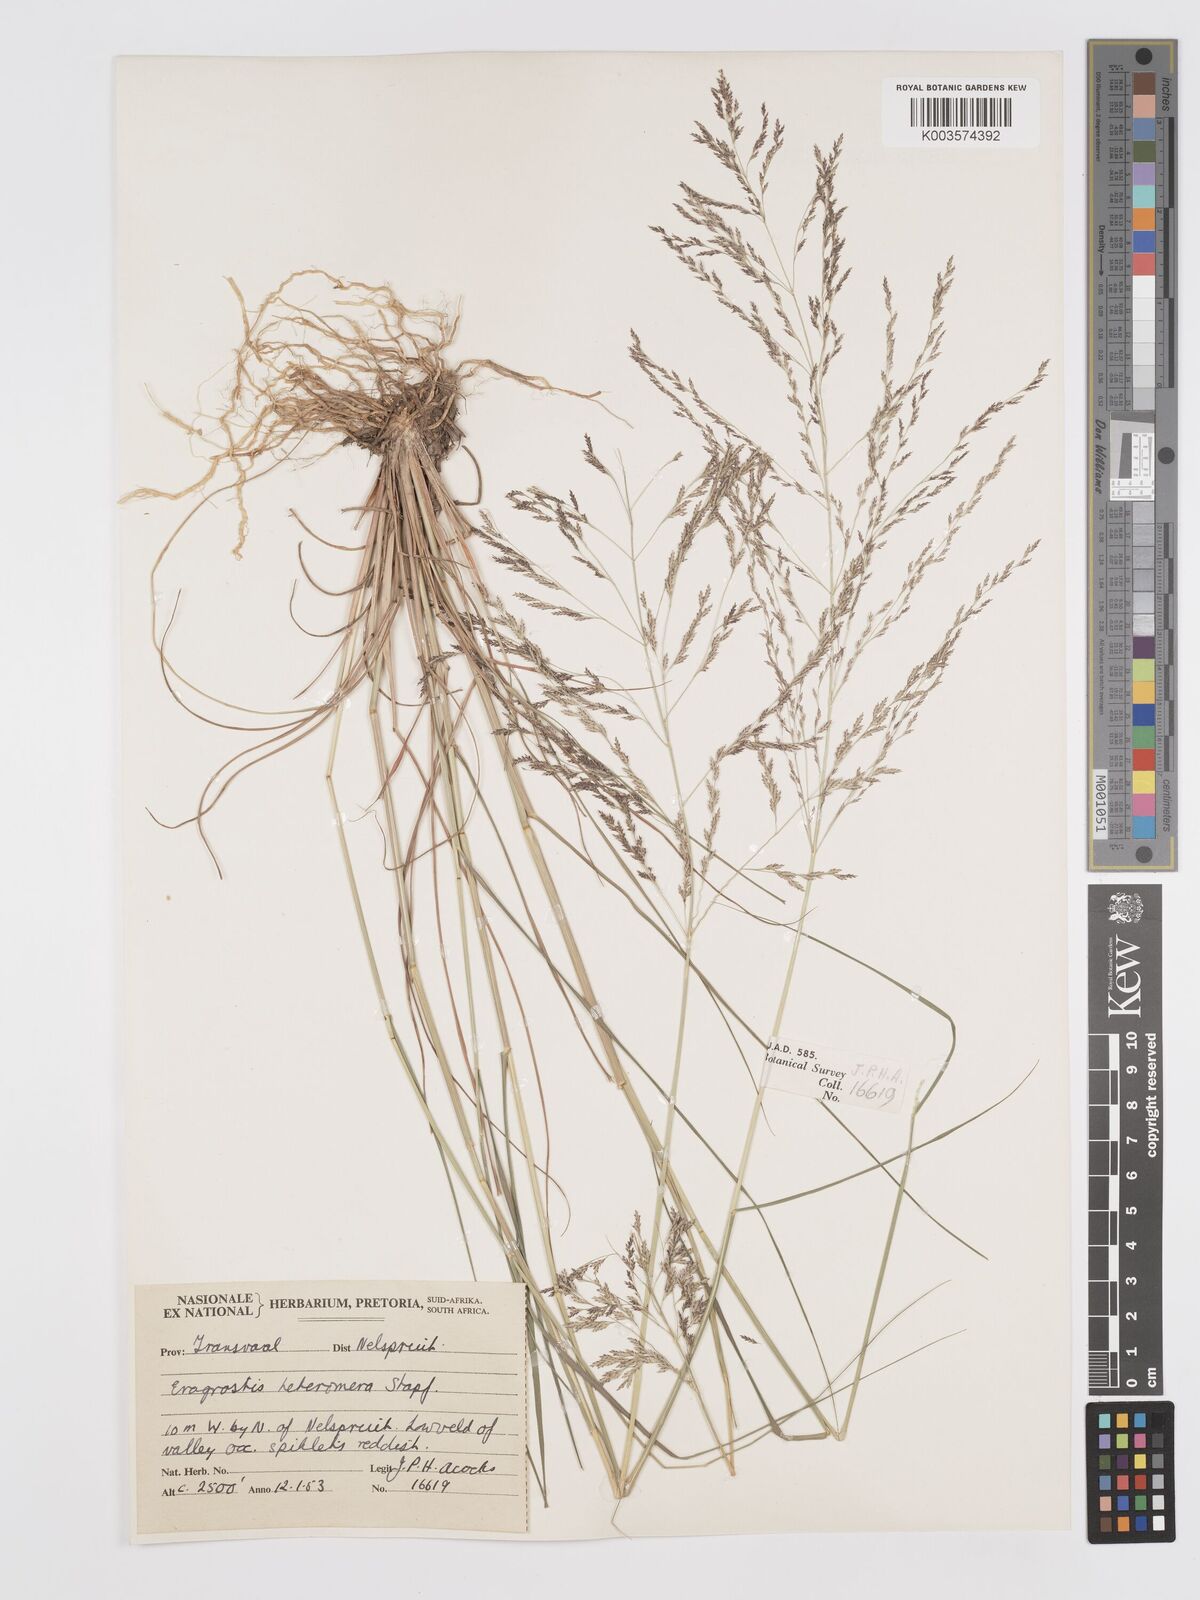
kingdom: Plantae
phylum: Tracheophyta
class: Liliopsida
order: Poales
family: Poaceae
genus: Eragrostis
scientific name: Eragrostis heteromera
